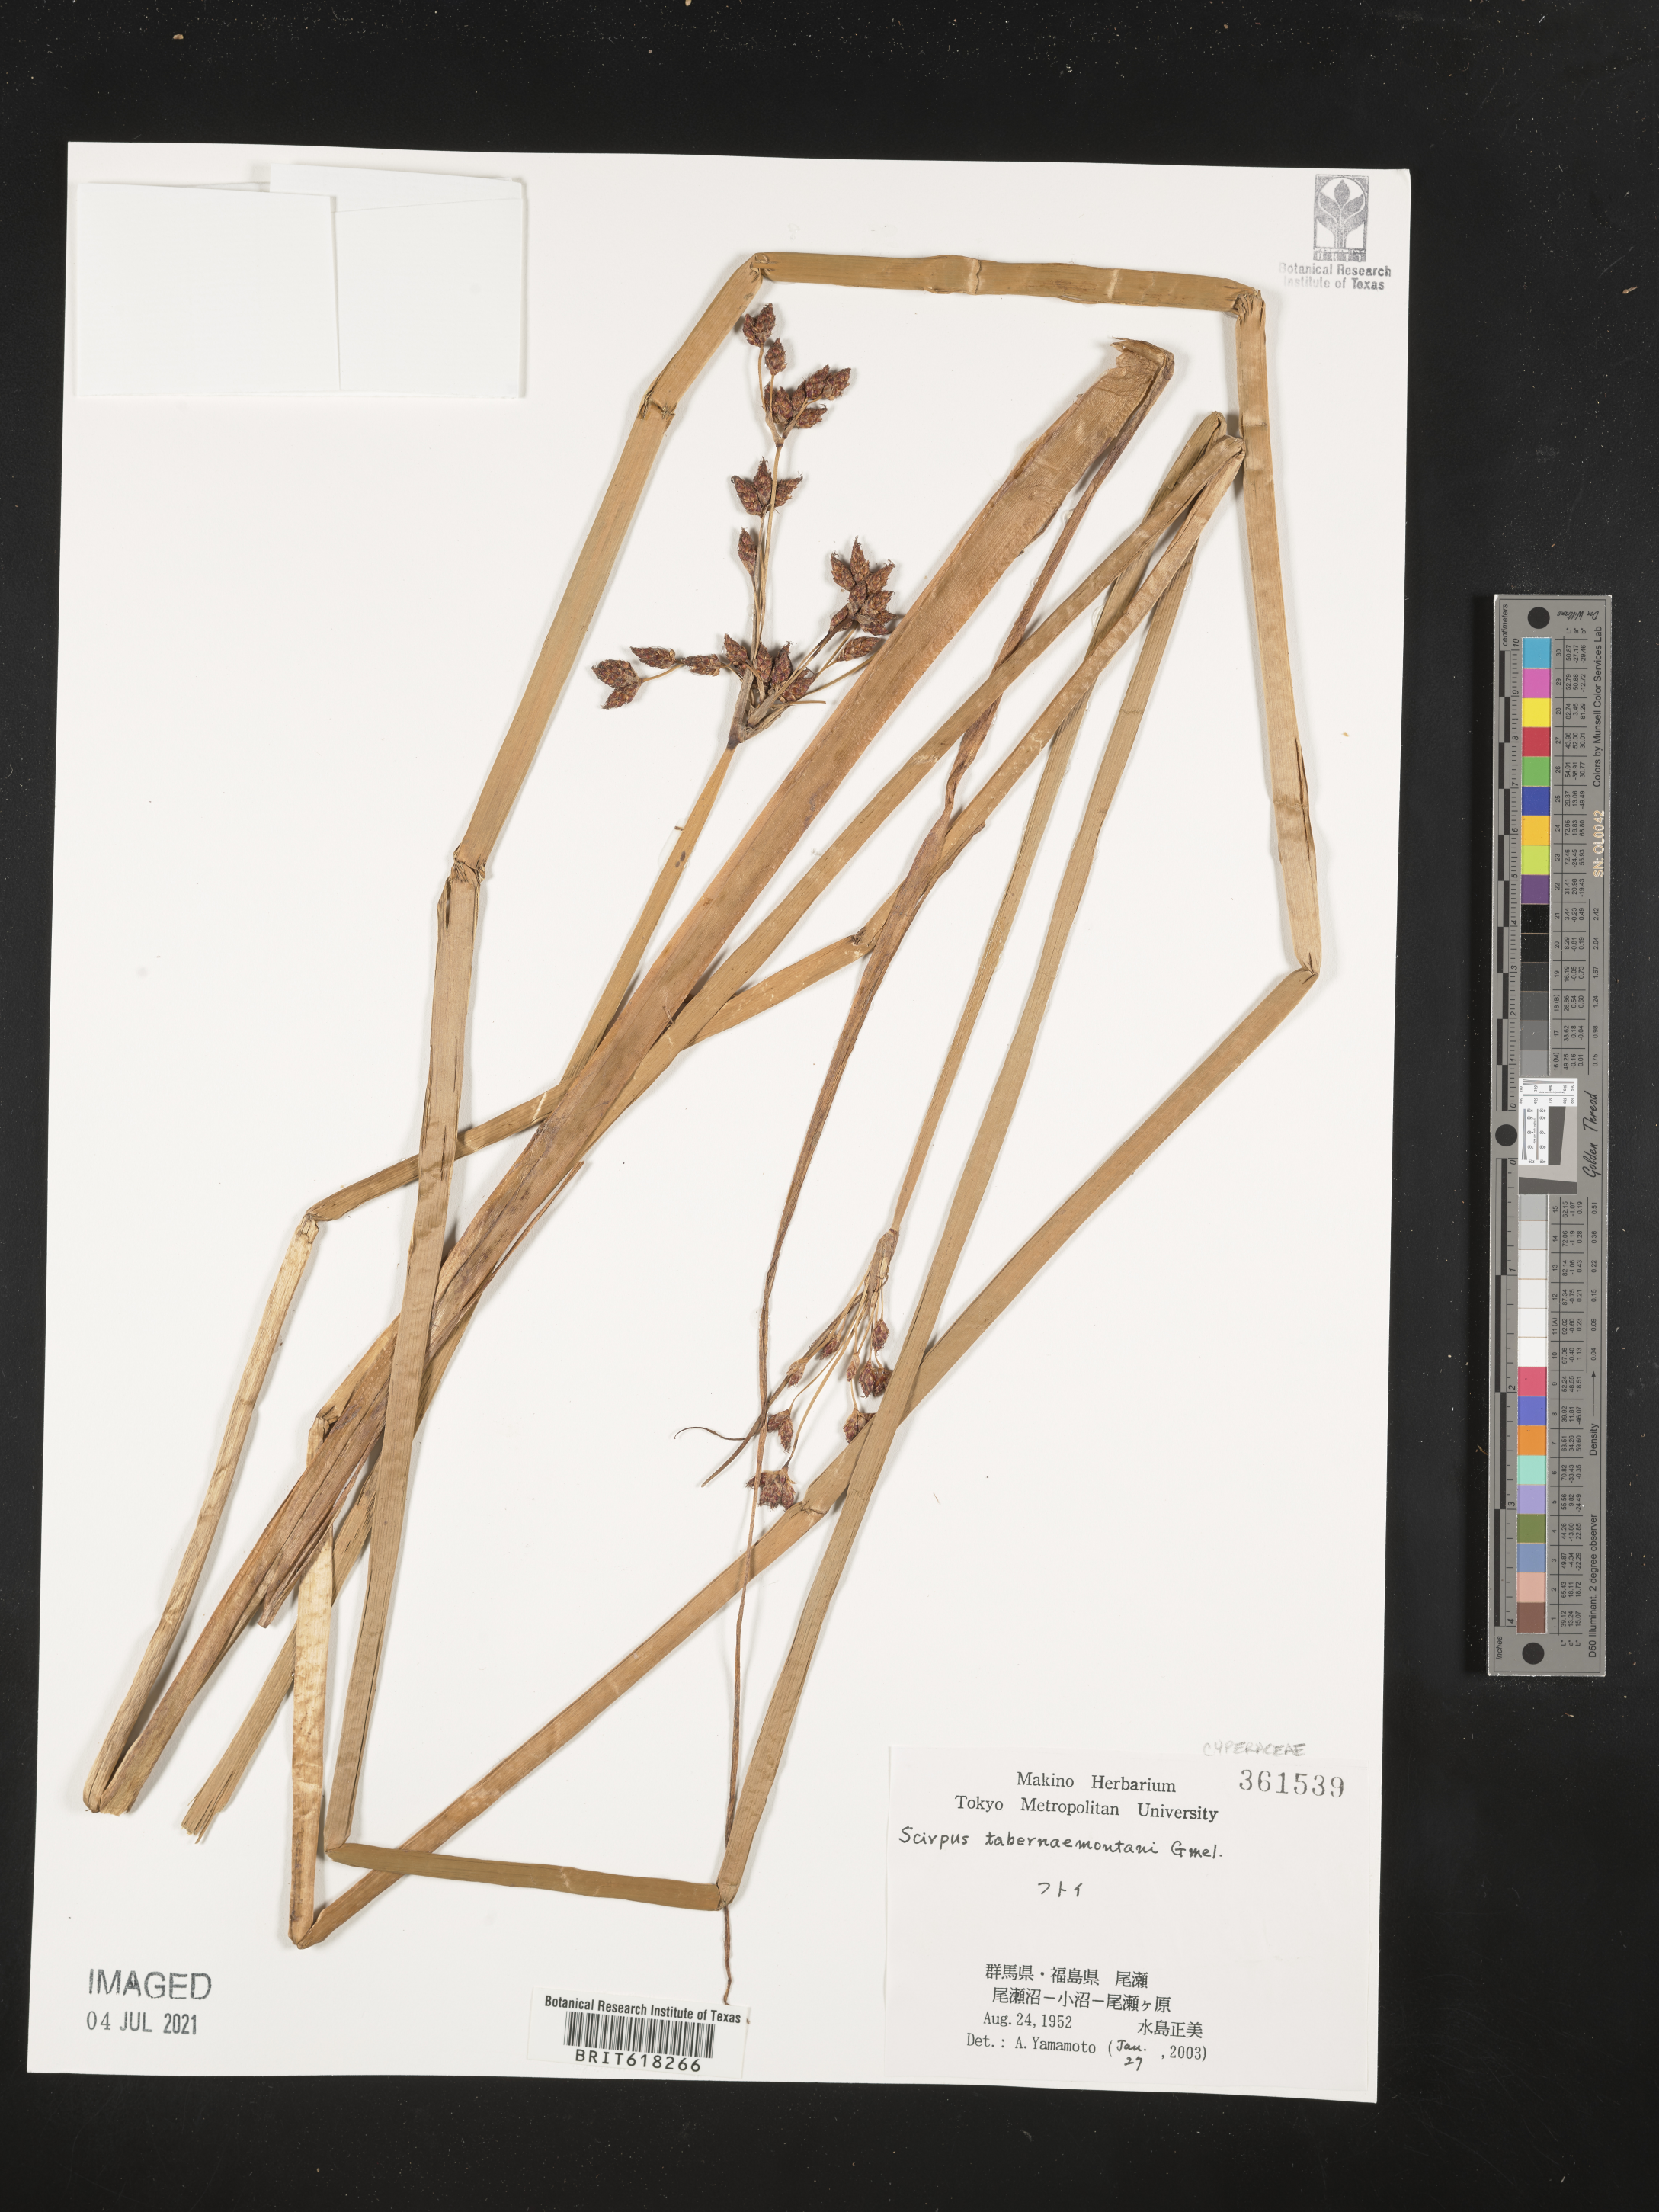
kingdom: Plantae
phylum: Tracheophyta
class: Liliopsida
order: Poales
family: Cyperaceae
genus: Schoenoplectus
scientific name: Schoenoplectus
